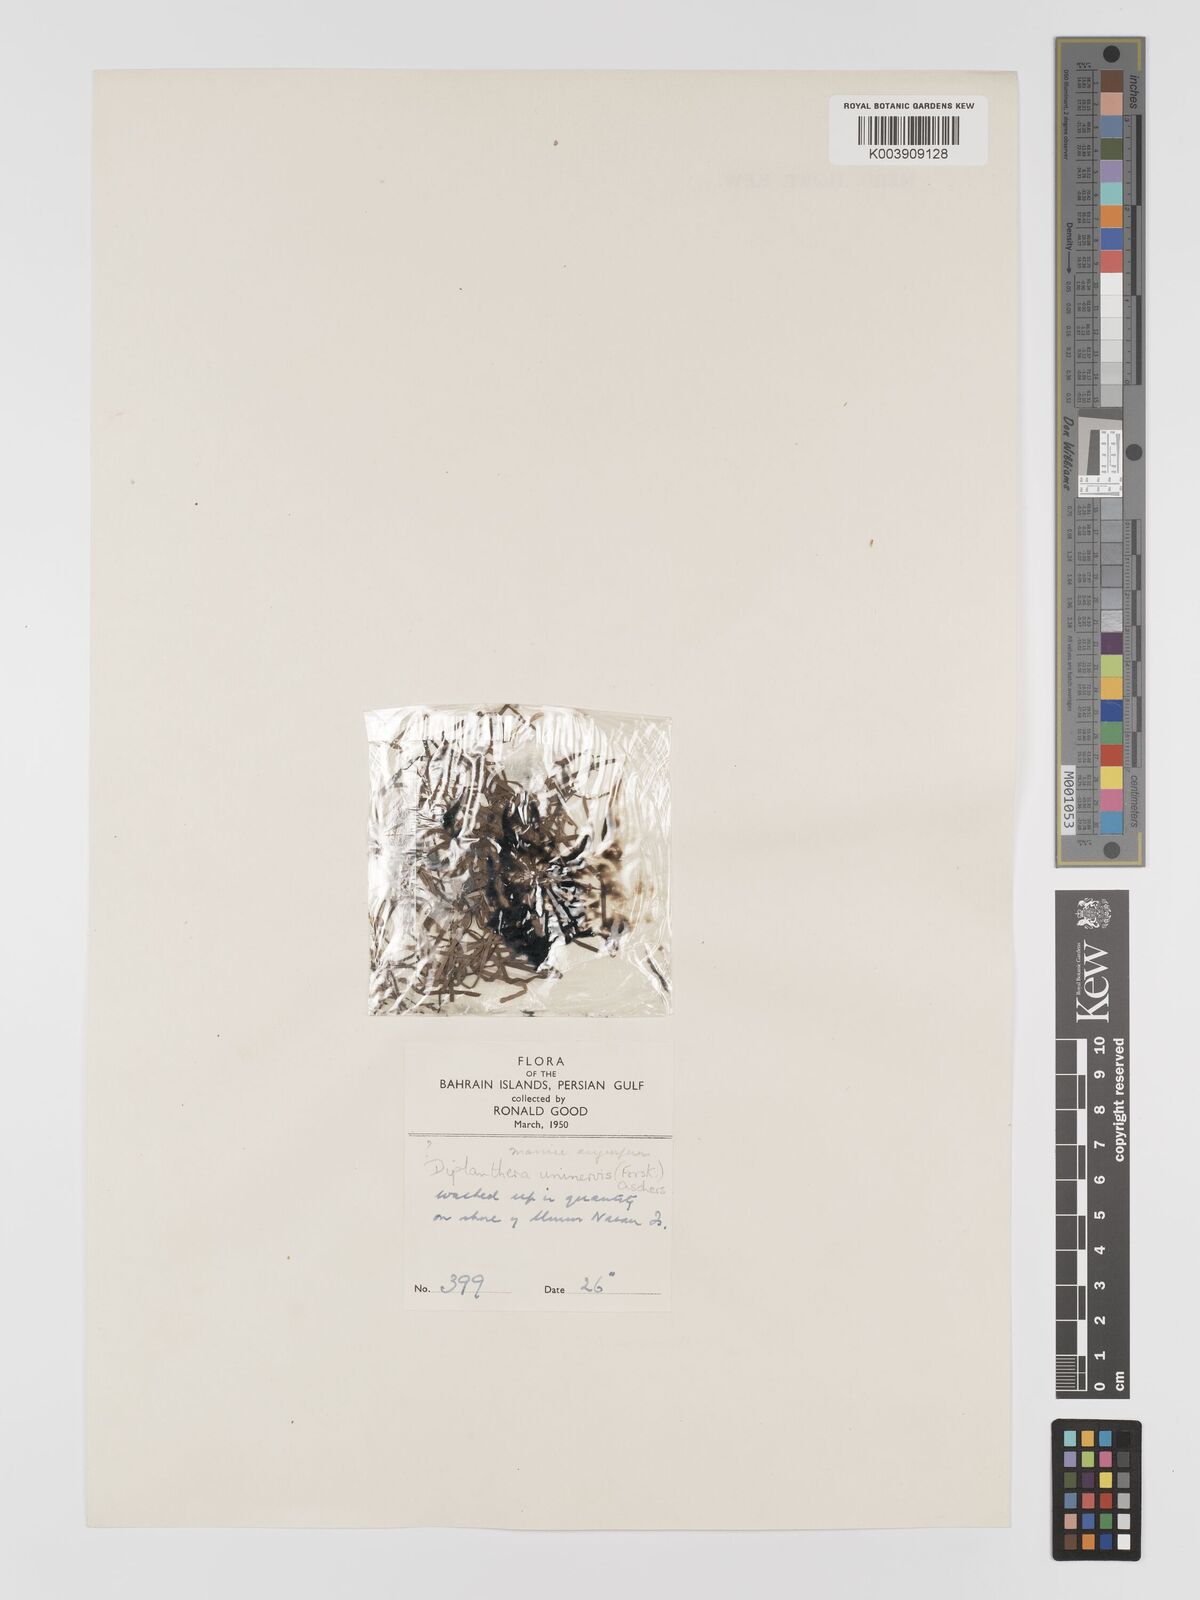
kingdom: Plantae
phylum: Tracheophyta
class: Liliopsida
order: Alismatales
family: Cymodoceaceae
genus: Halodule
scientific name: Halodule uninervis
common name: Narrowleaf seagrass
